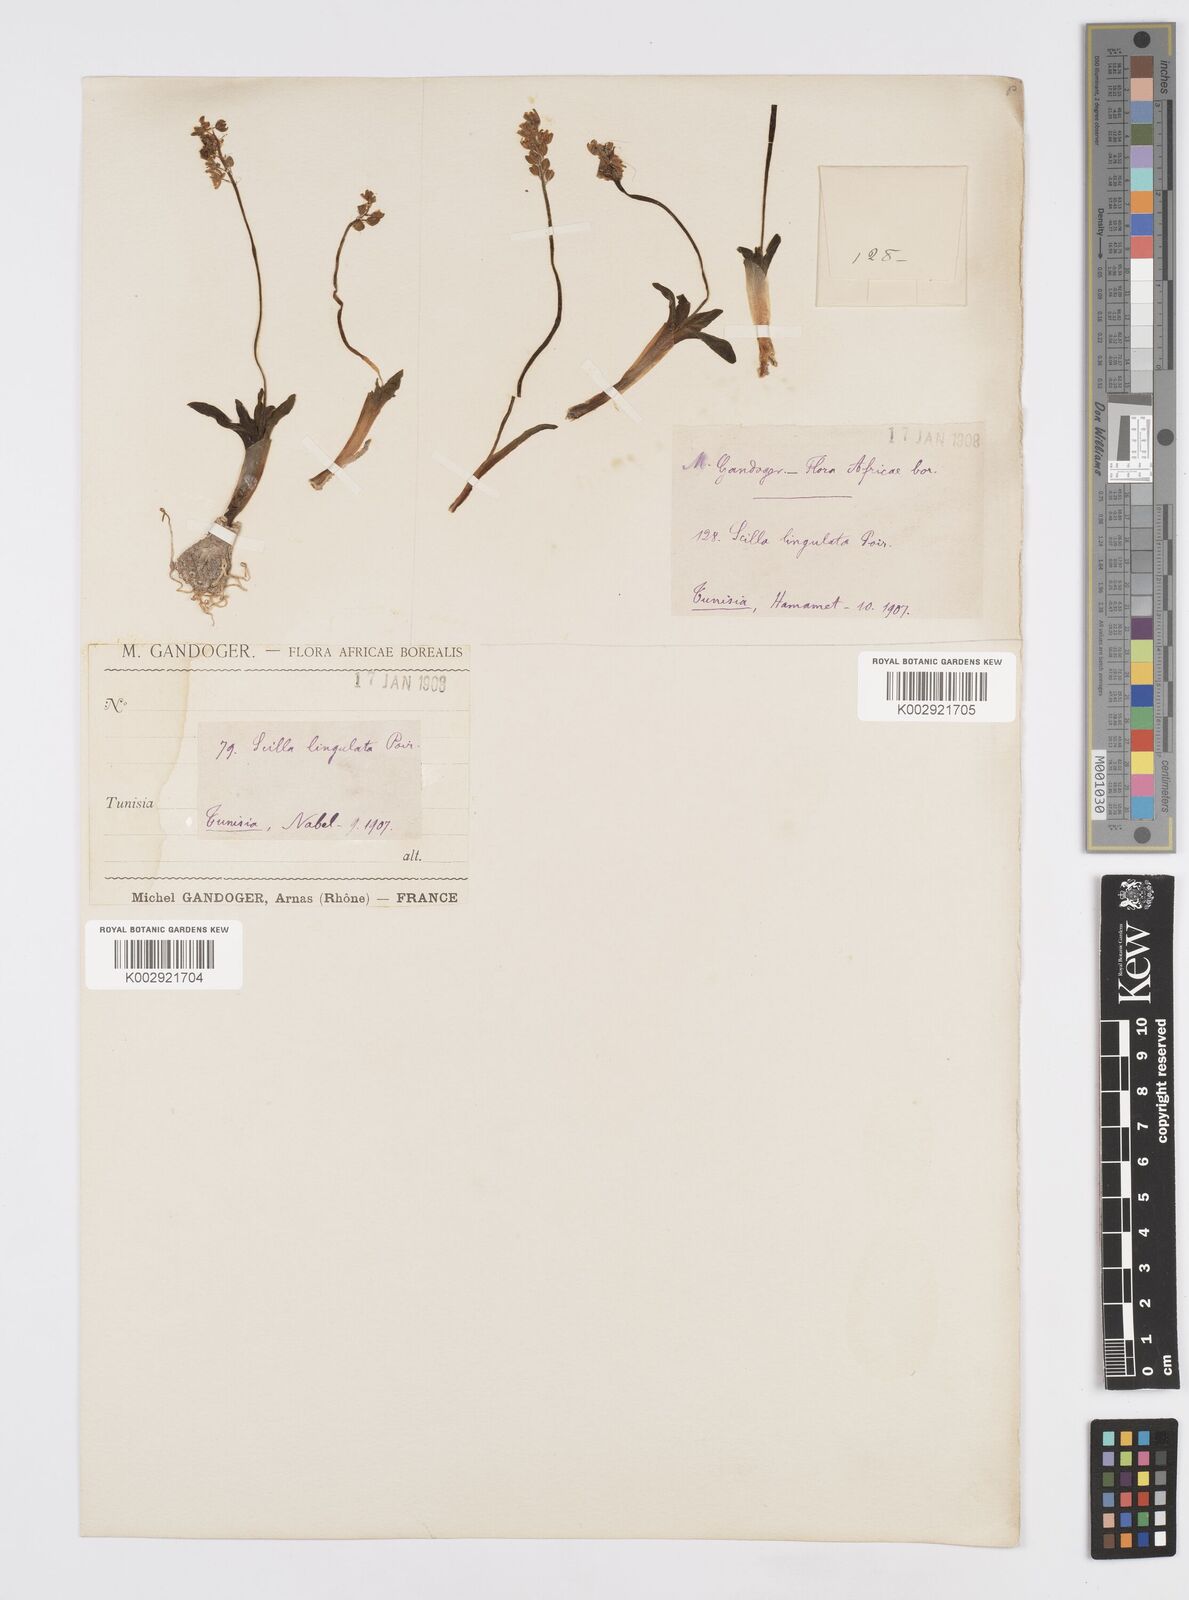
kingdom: Plantae
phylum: Tracheophyta
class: Liliopsida
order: Asparagales
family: Asparagaceae
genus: Hyacinthoides
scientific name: Hyacinthoides lingulata
